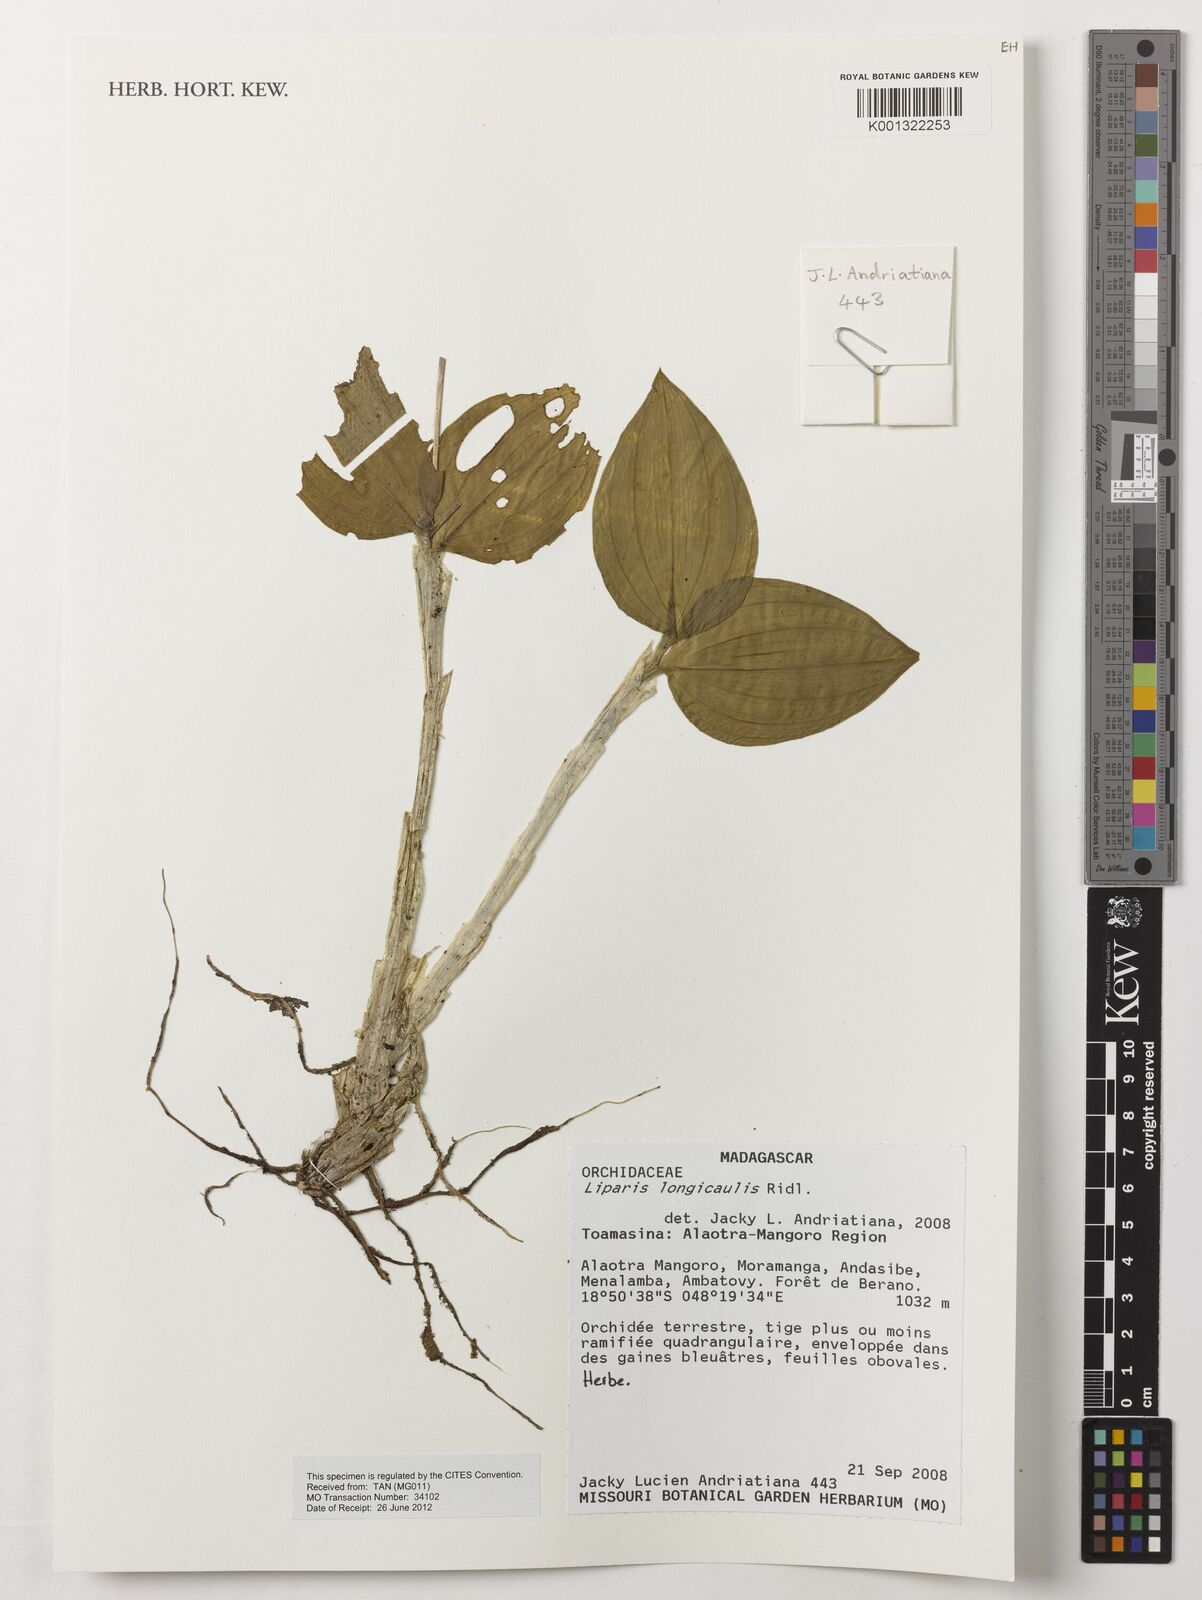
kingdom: Plantae
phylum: Tracheophyta
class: Liliopsida
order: Asparagales
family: Orchidaceae
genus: Liparis
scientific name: Liparis longicaulis
